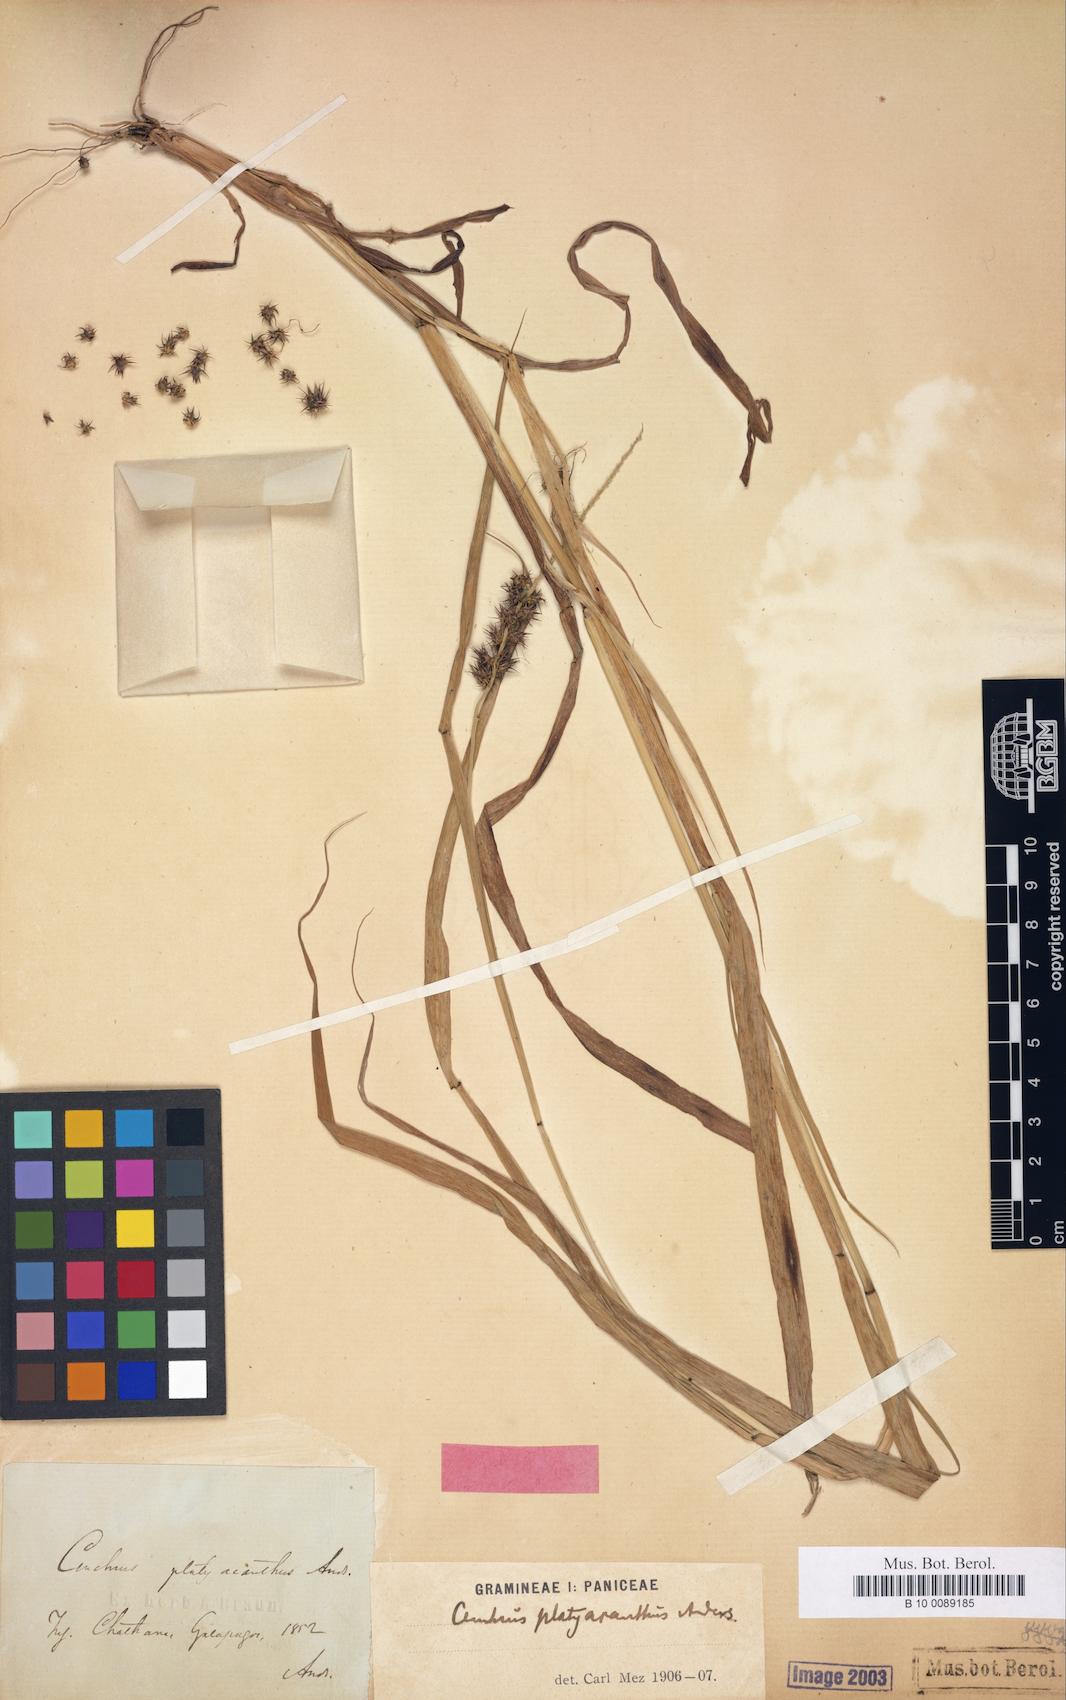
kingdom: Plantae
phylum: Tracheophyta
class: Liliopsida
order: Poales
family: Poaceae
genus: Cenchrus
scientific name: Cenchrus platyacanthus
